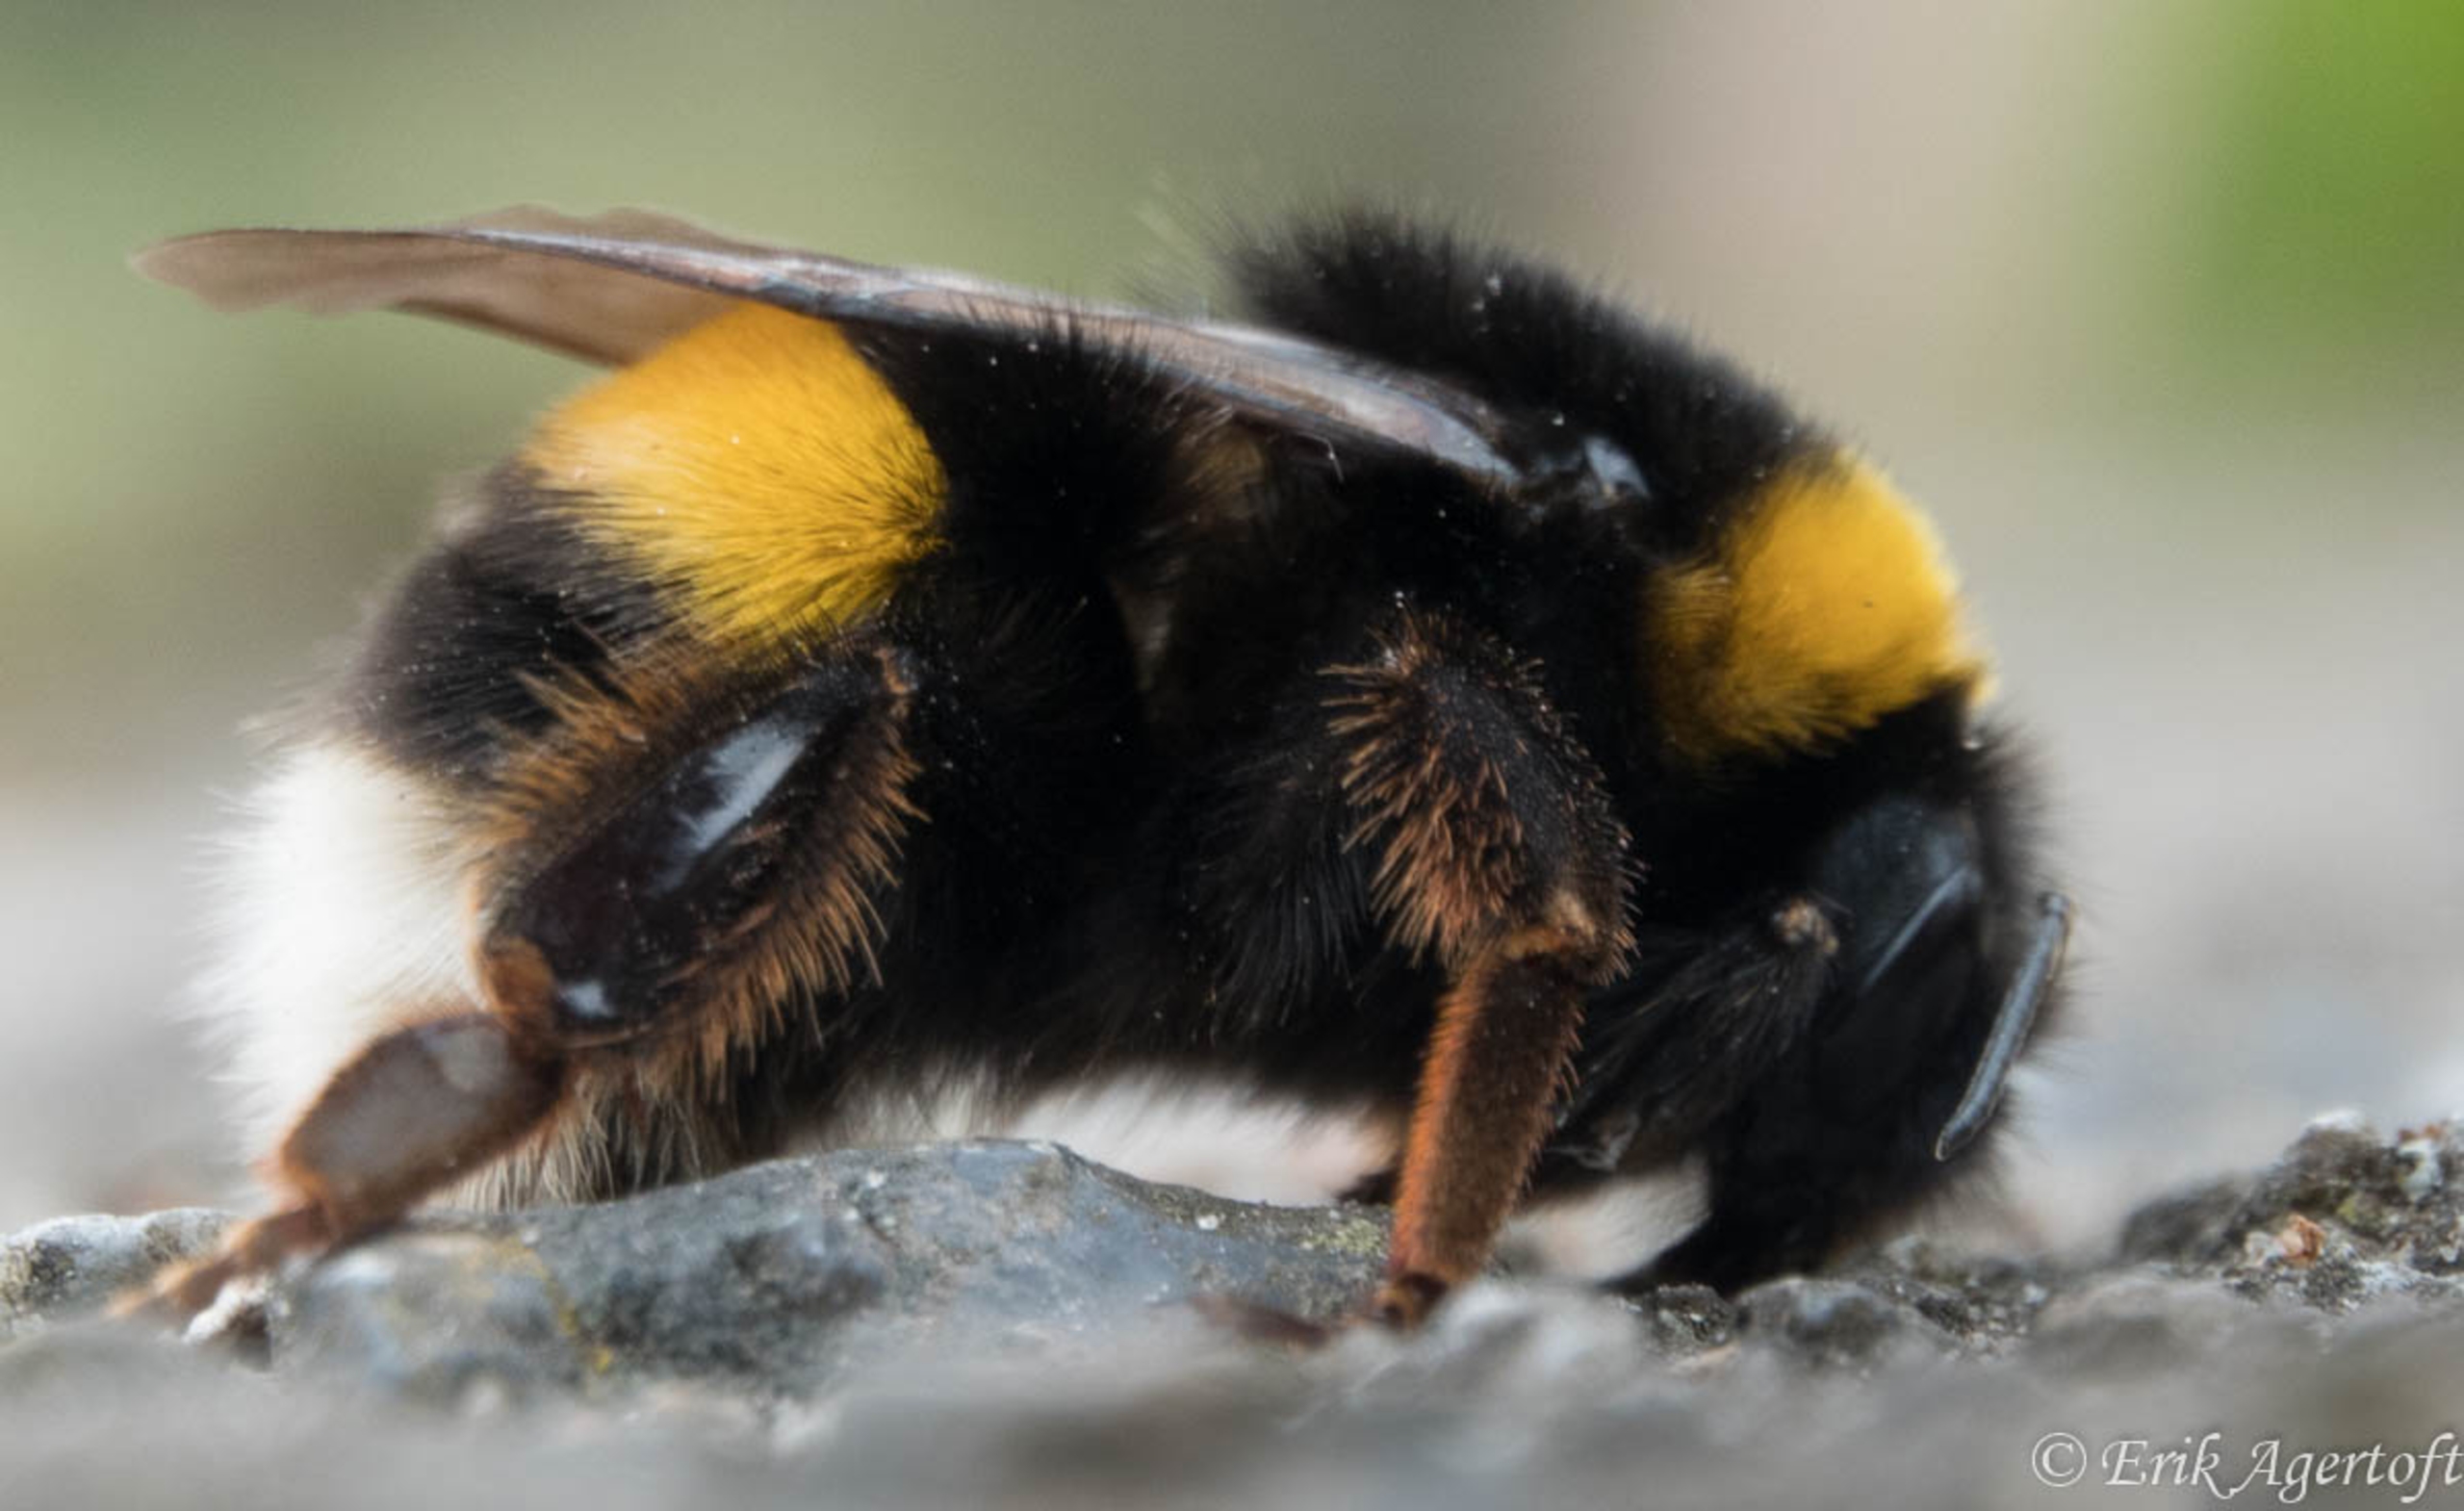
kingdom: Animalia
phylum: Arthropoda
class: Insecta
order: Hymenoptera
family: Apidae
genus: Bombus
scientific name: Bombus
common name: Humlebier
